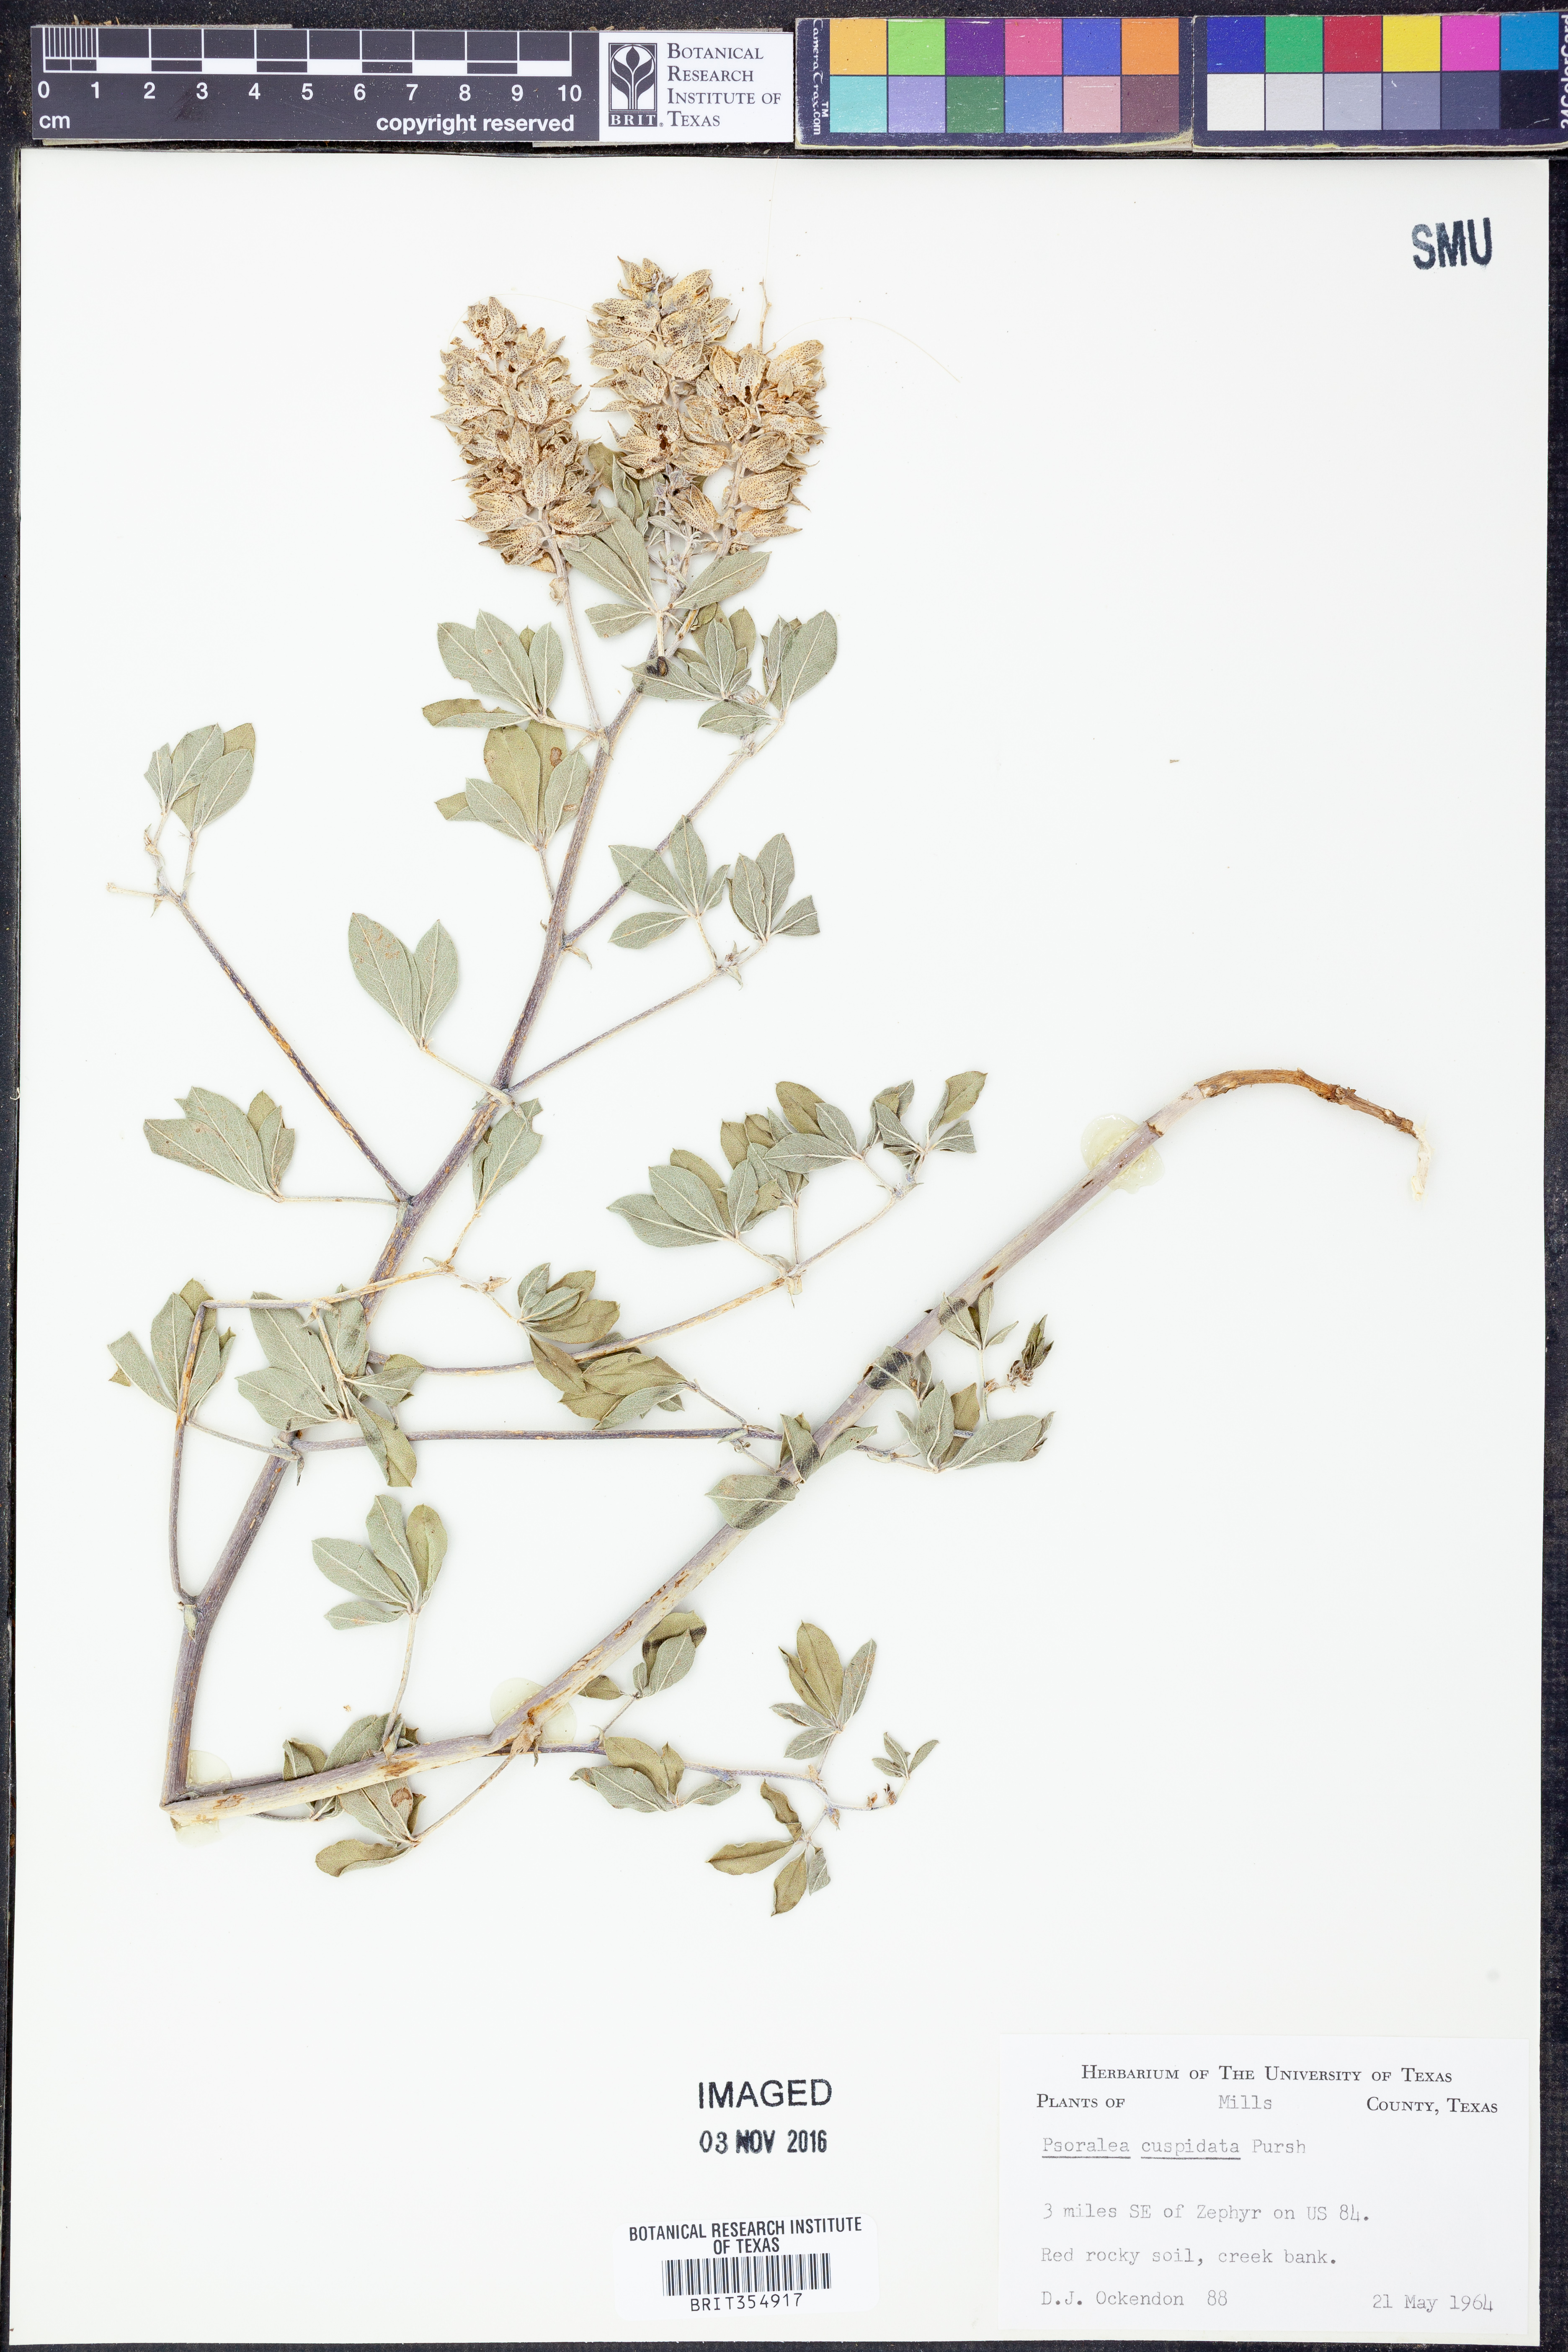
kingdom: Plantae
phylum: Tracheophyta
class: Magnoliopsida
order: Fabales
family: Fabaceae
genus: Pediomelum
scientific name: Pediomelum cuspidatum
